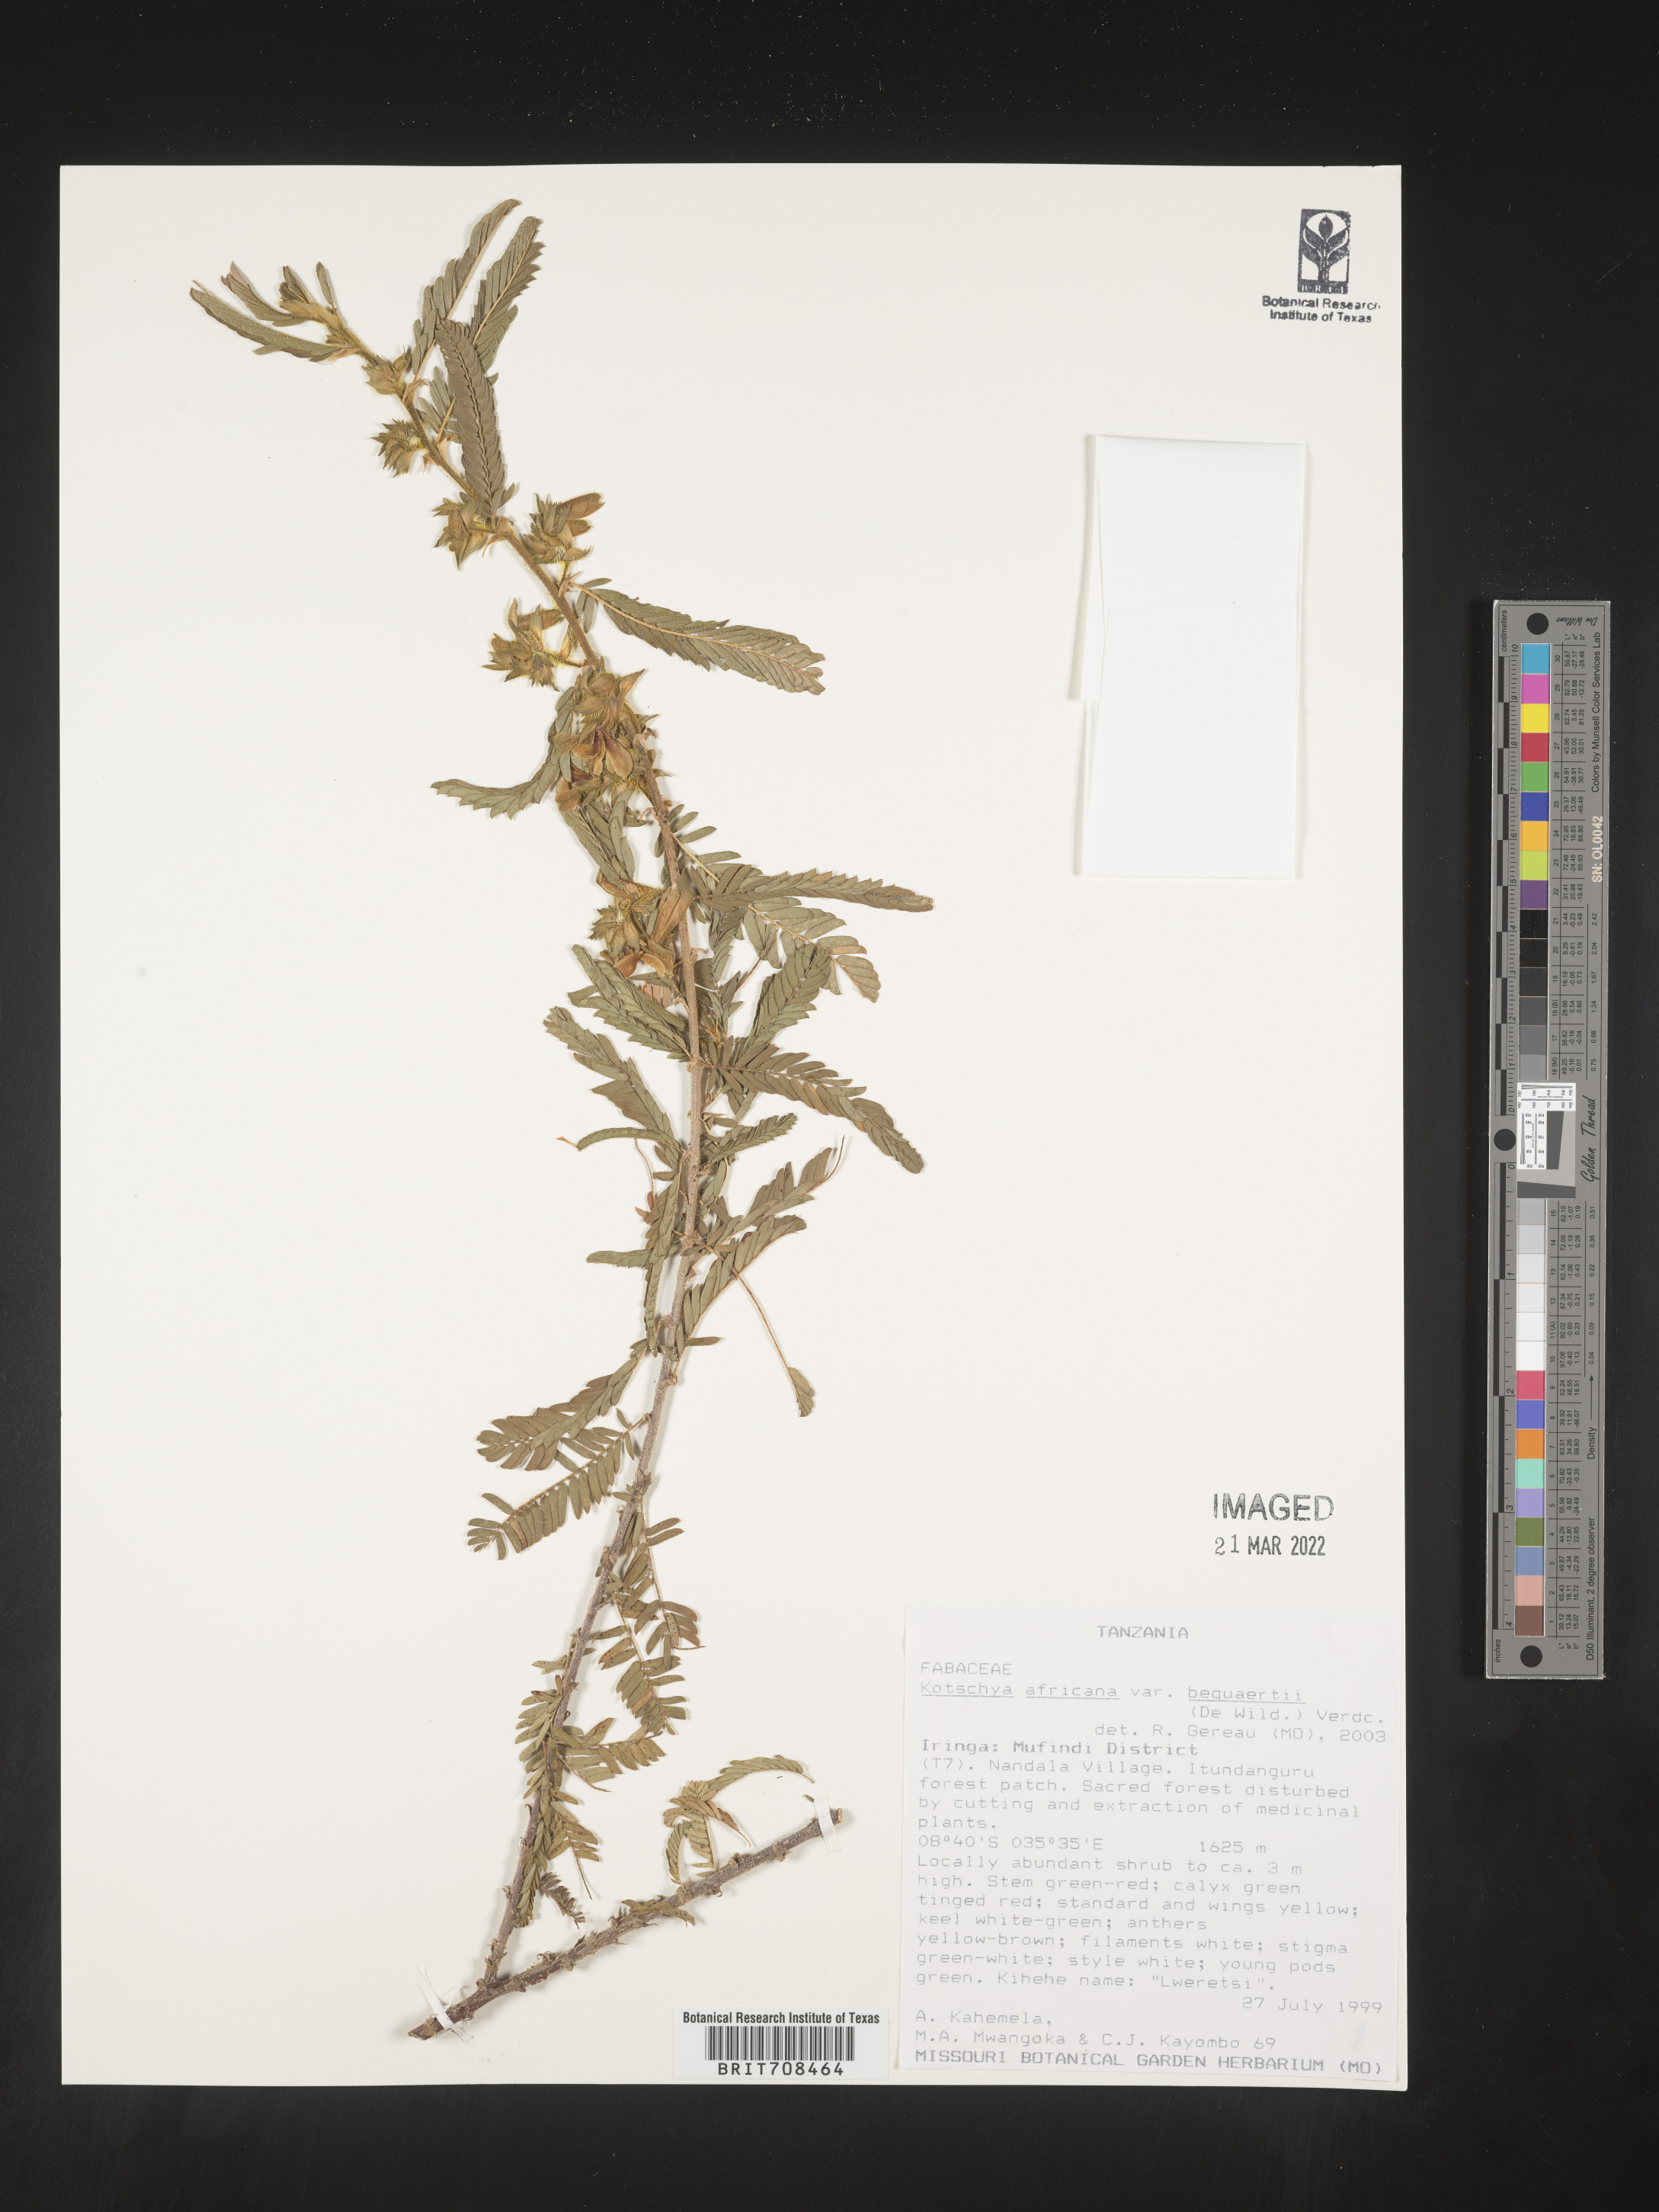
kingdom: Plantae
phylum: Tracheophyta
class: Magnoliopsida
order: Fabales
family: Fabaceae
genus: Kotschya
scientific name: Kotschya
